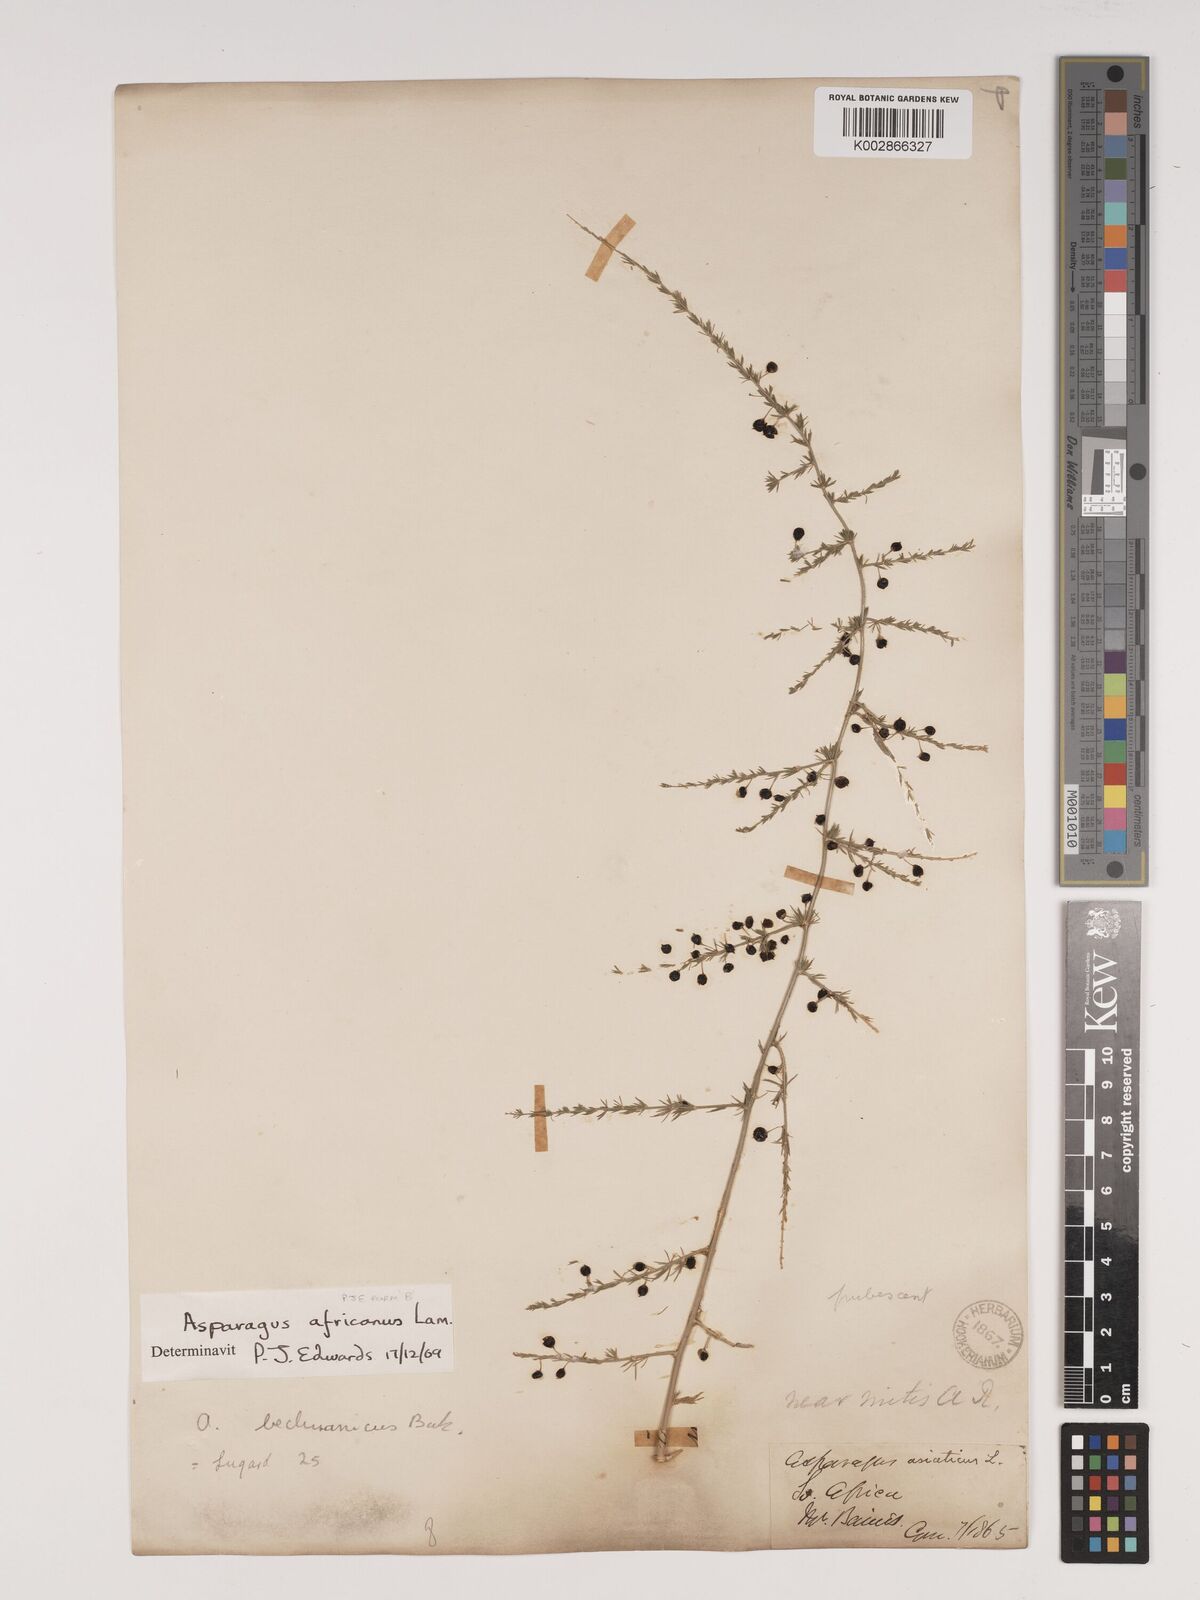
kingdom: Plantae
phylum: Tracheophyta
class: Liliopsida
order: Asparagales
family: Asparagaceae
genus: Asparagus
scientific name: Asparagus africanus
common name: Asparagus-fern
